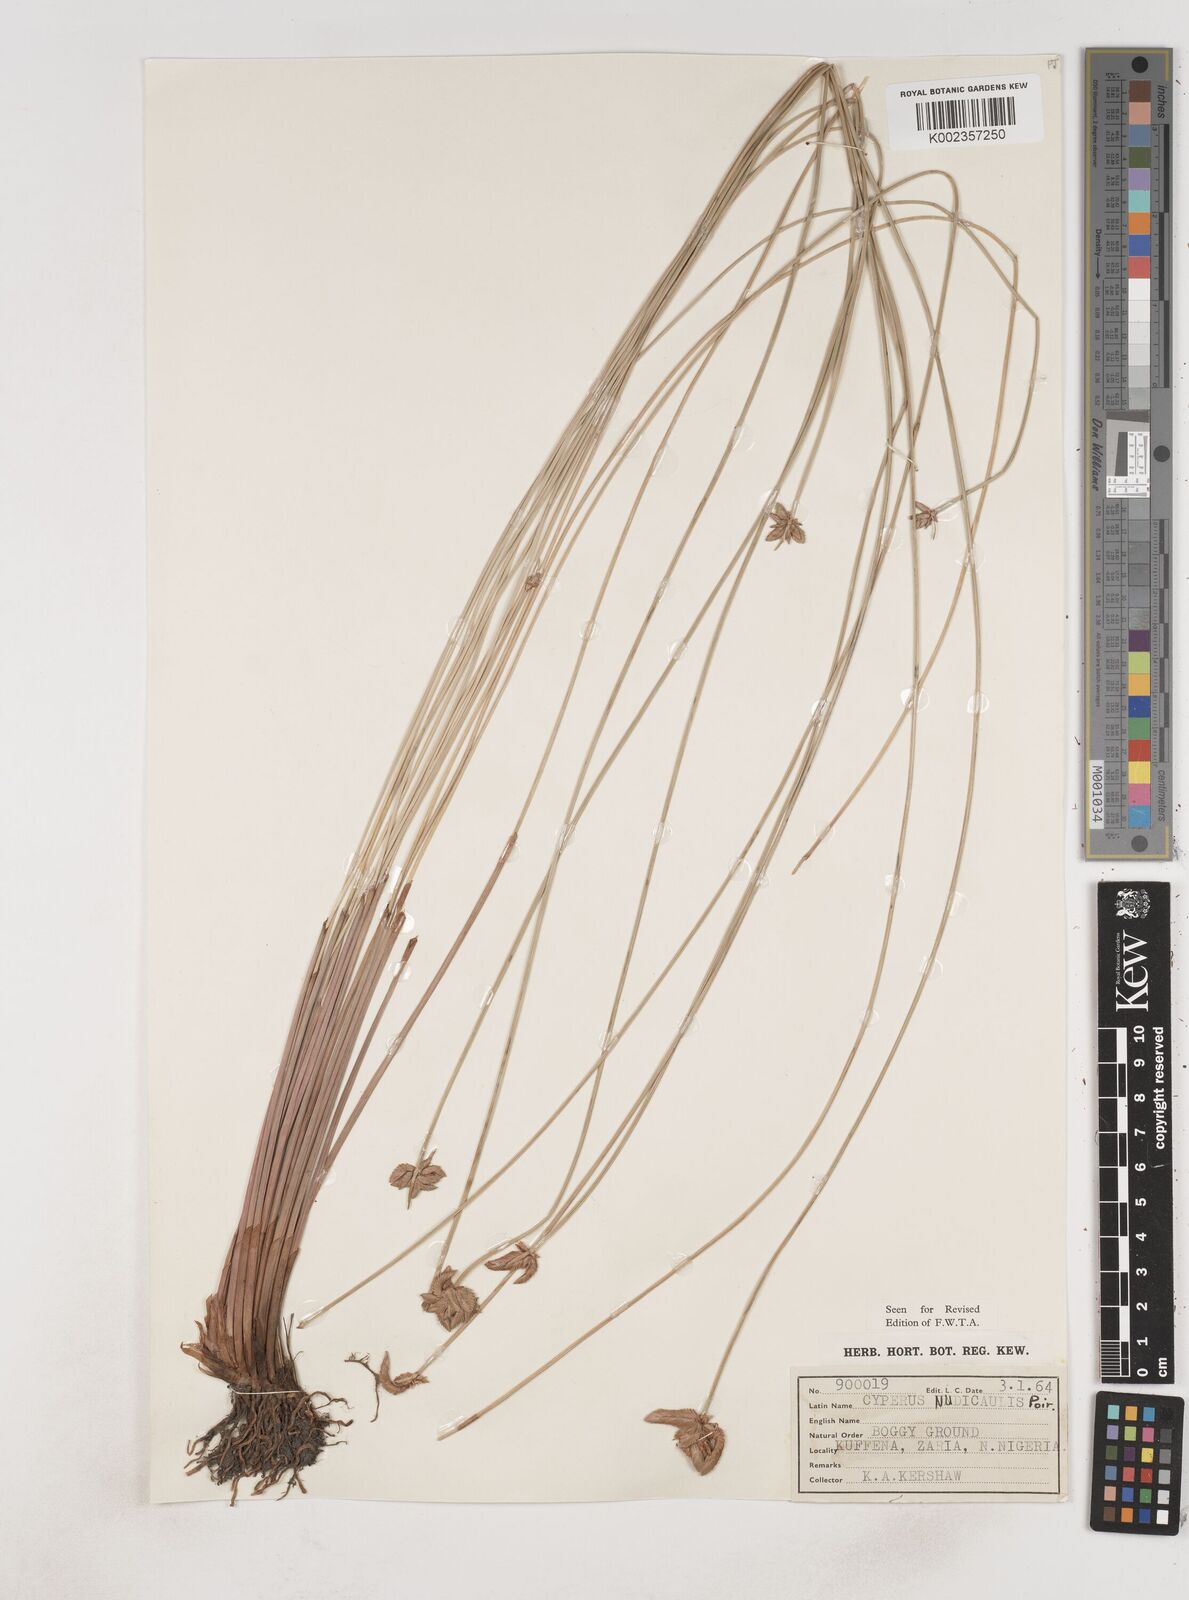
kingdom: Plantae
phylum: Tracheophyta
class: Liliopsida
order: Poales
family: Cyperaceae
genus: Cyperus
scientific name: Cyperus pectinatus
